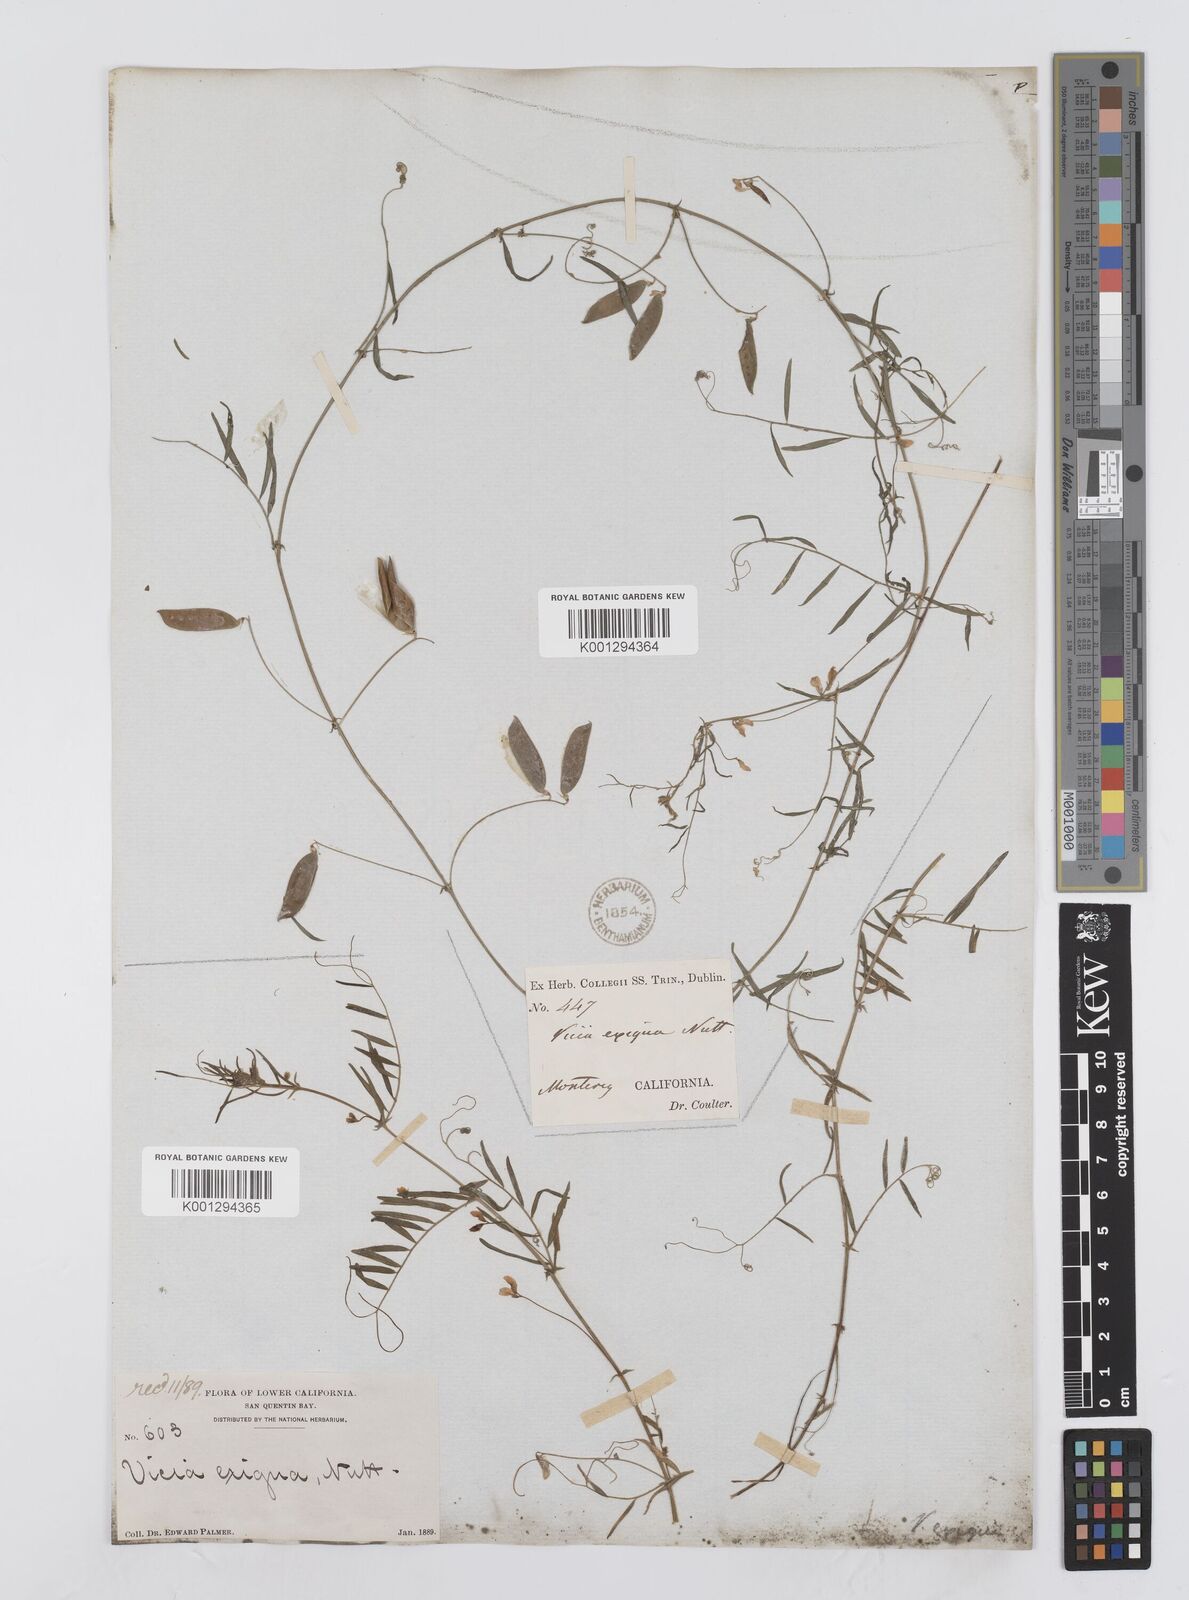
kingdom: Plantae
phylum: Tracheophyta
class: Magnoliopsida
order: Fabales
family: Fabaceae
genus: Vicia
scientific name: Vicia ludoviciana
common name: Louisiana vetch
